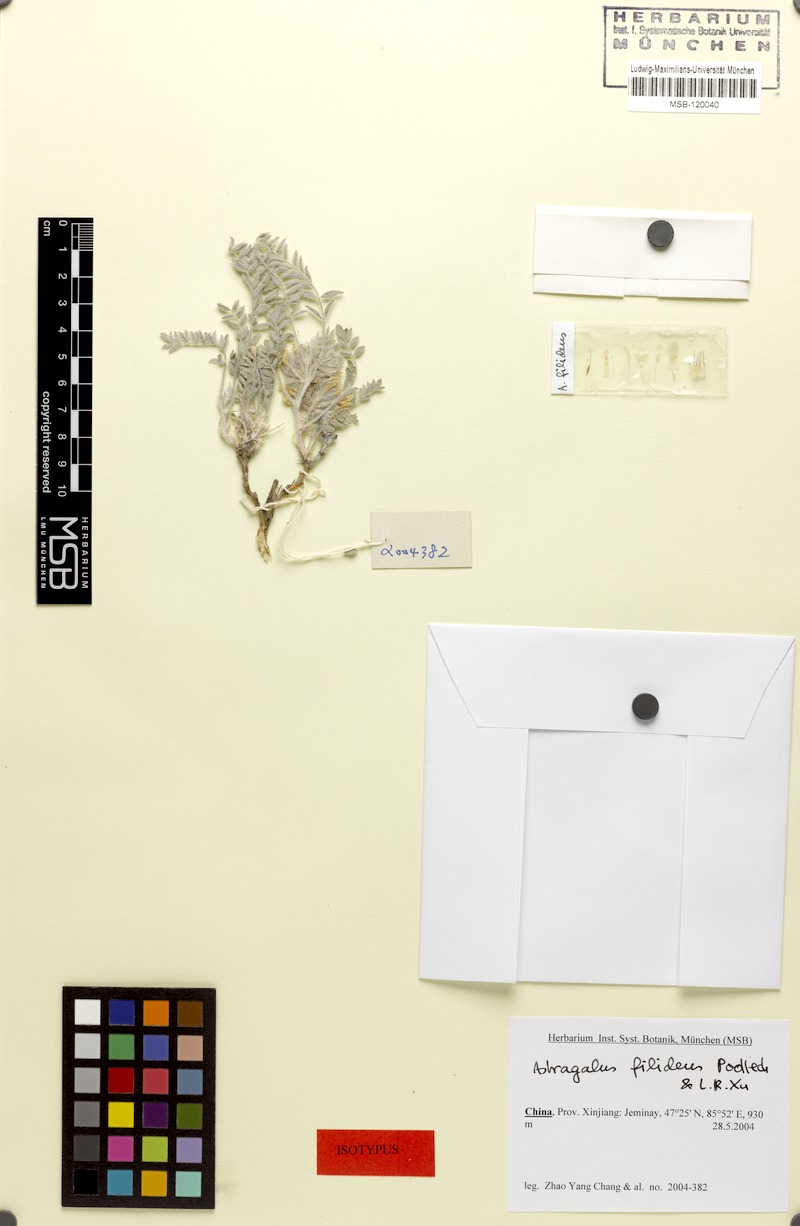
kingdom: Plantae
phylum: Tracheophyta
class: Magnoliopsida
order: Fabales
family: Fabaceae
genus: Astragalus
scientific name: Astragalus filidens
